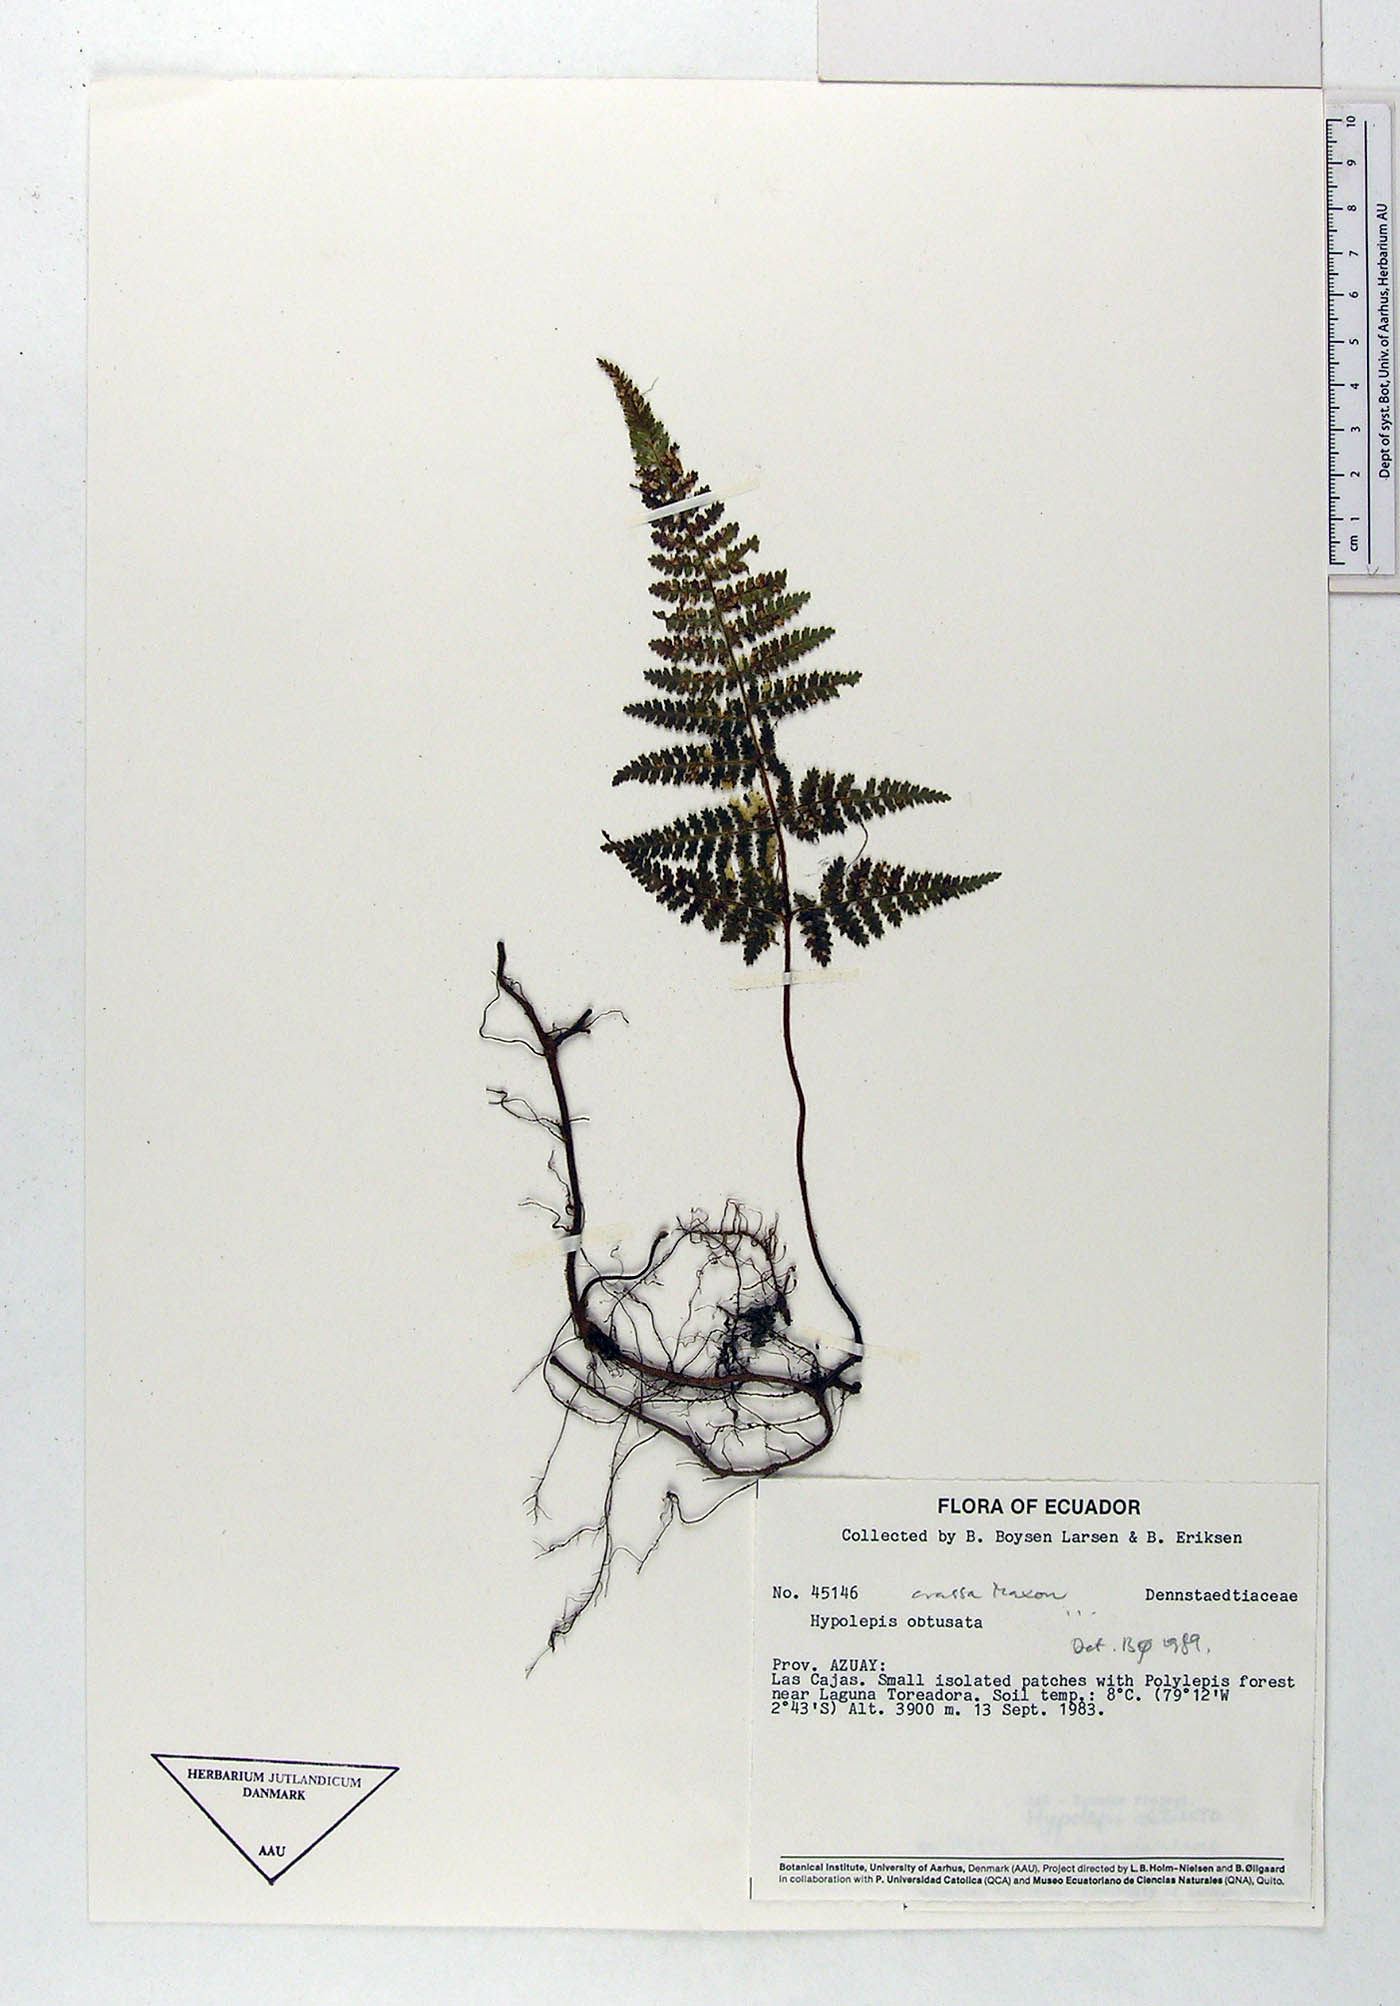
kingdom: Plantae
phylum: Tracheophyta
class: Polypodiopsida
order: Polypodiales
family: Dennstaedtiaceae
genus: Hypolepis
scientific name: Hypolepis crassa
